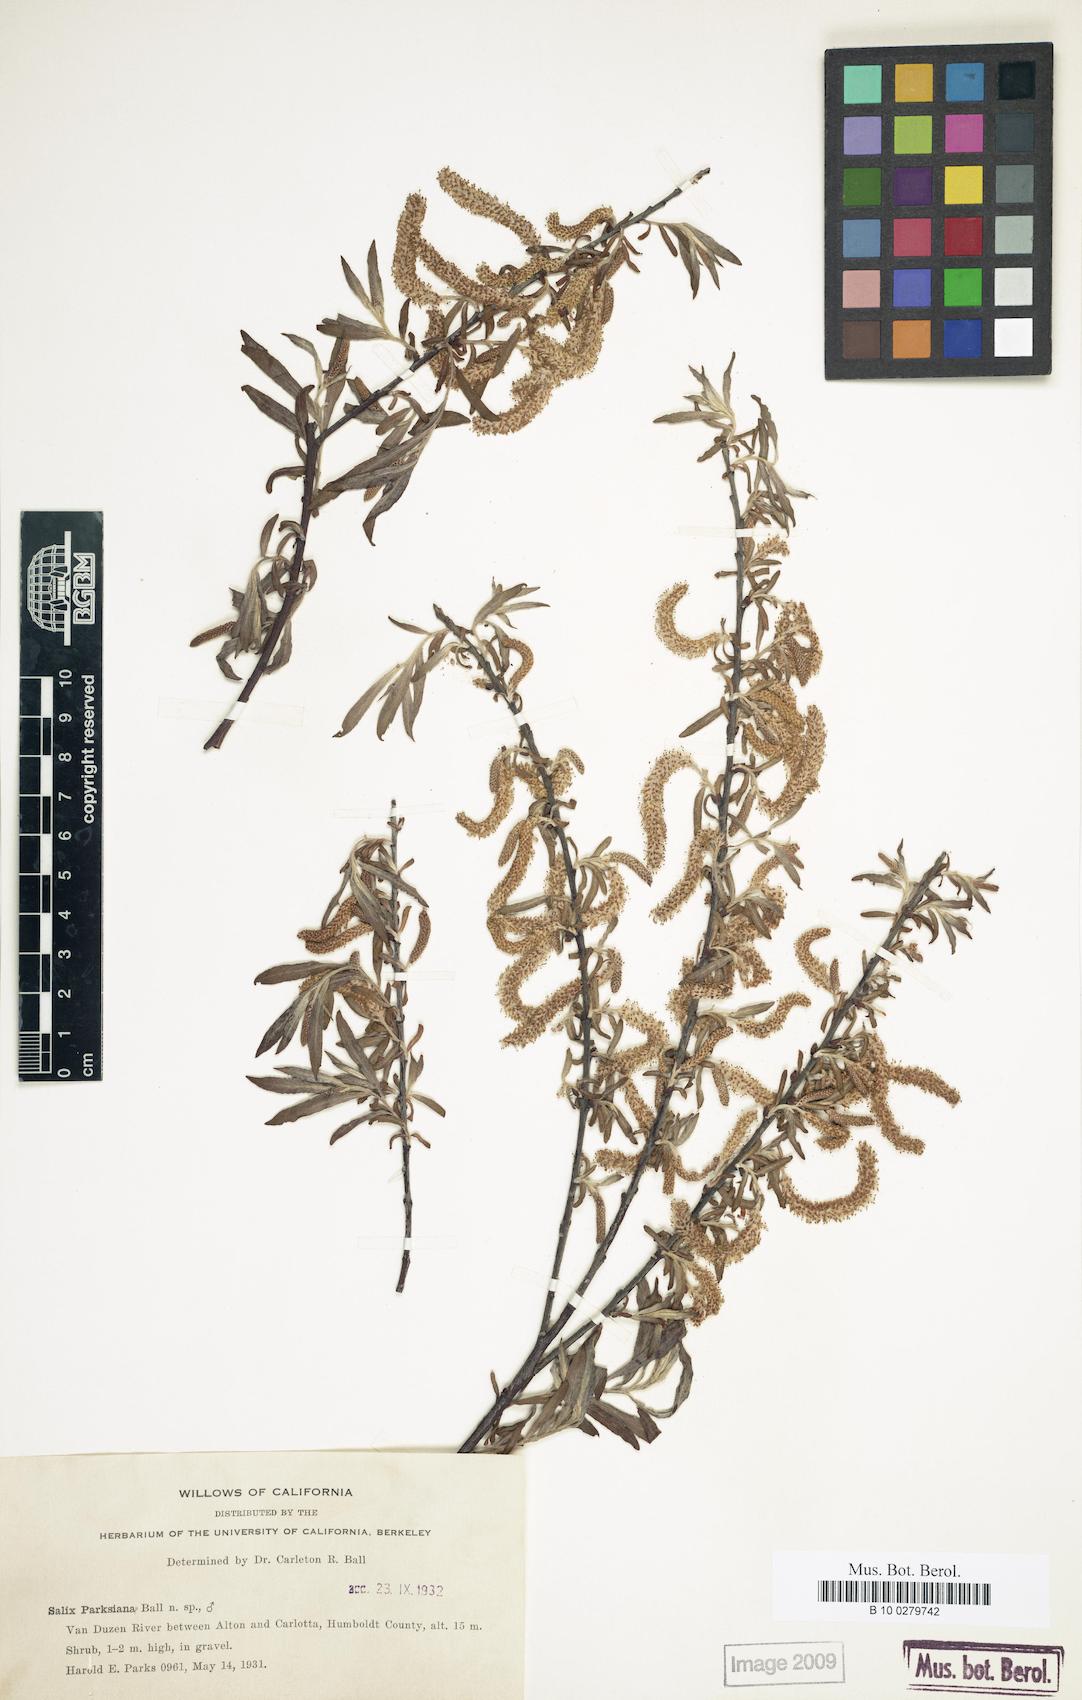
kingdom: Plantae
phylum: Tracheophyta
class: Magnoliopsida
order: Malpighiales
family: Salicaceae
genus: Salix
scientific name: Salix melanopsis
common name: Dusky willow
